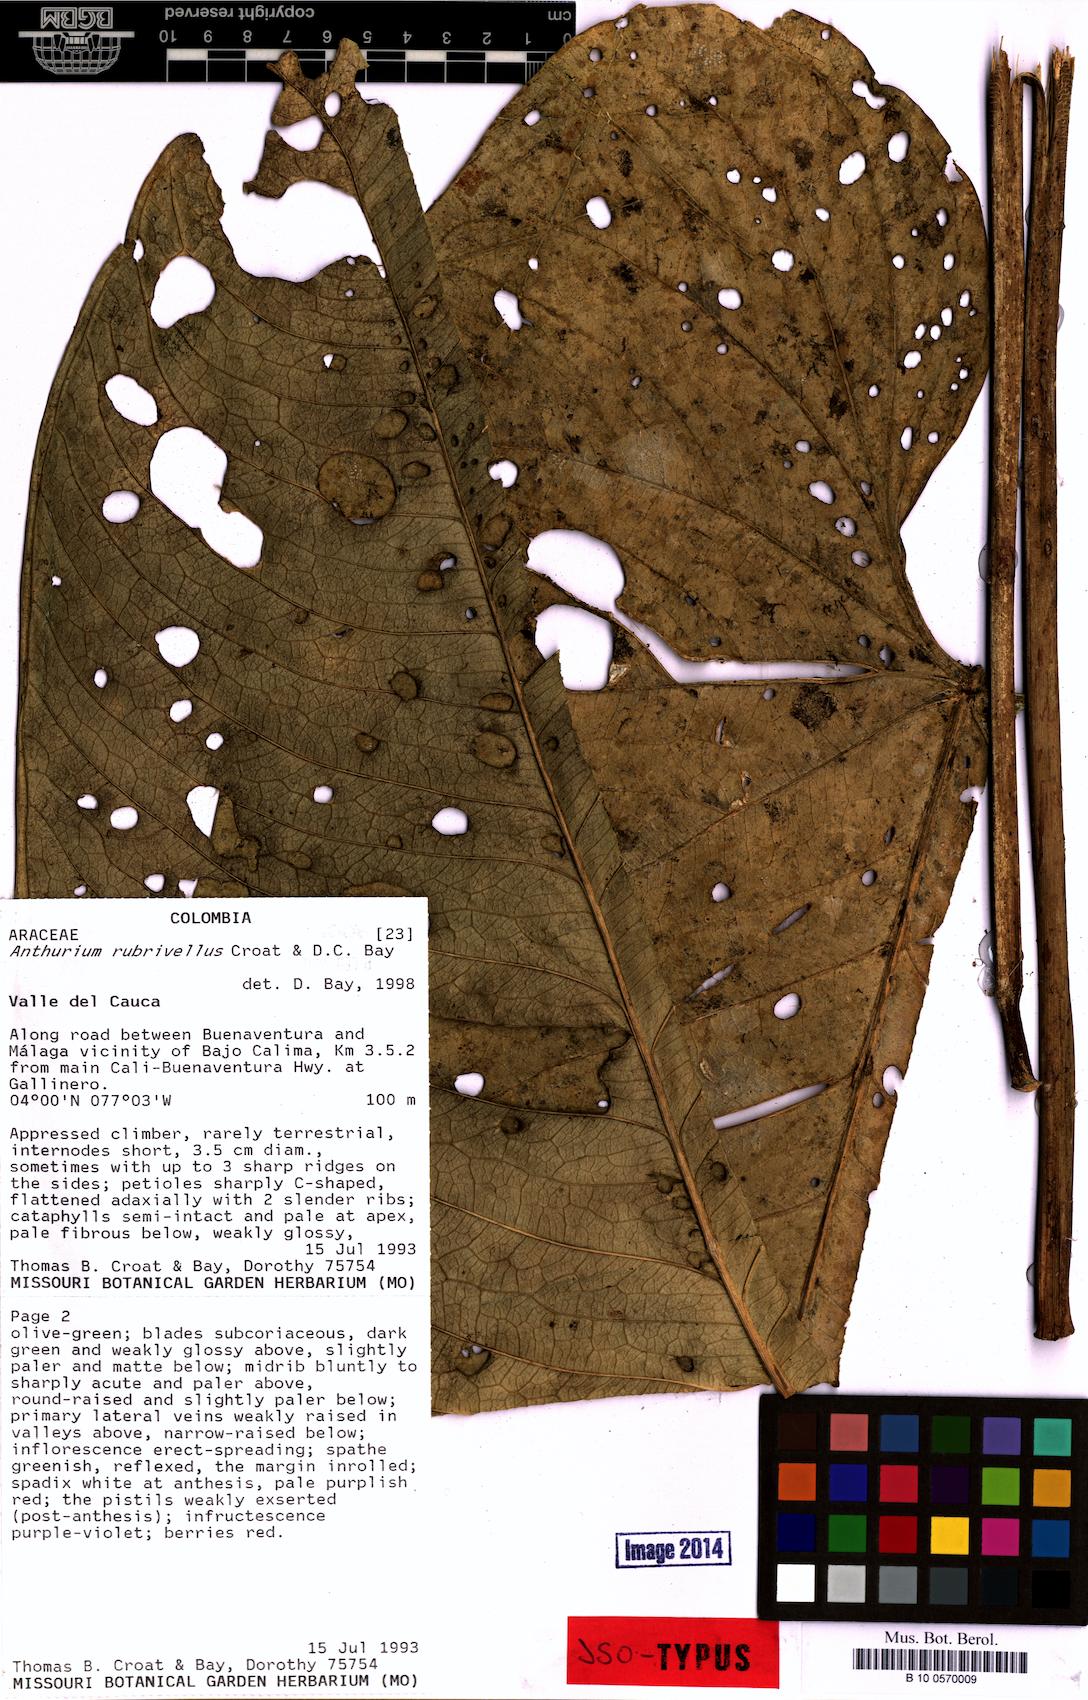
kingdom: Plantae
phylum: Tracheophyta
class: Liliopsida
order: Alismatales
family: Araceae
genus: Anthurium
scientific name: Anthurium rubrivellus
